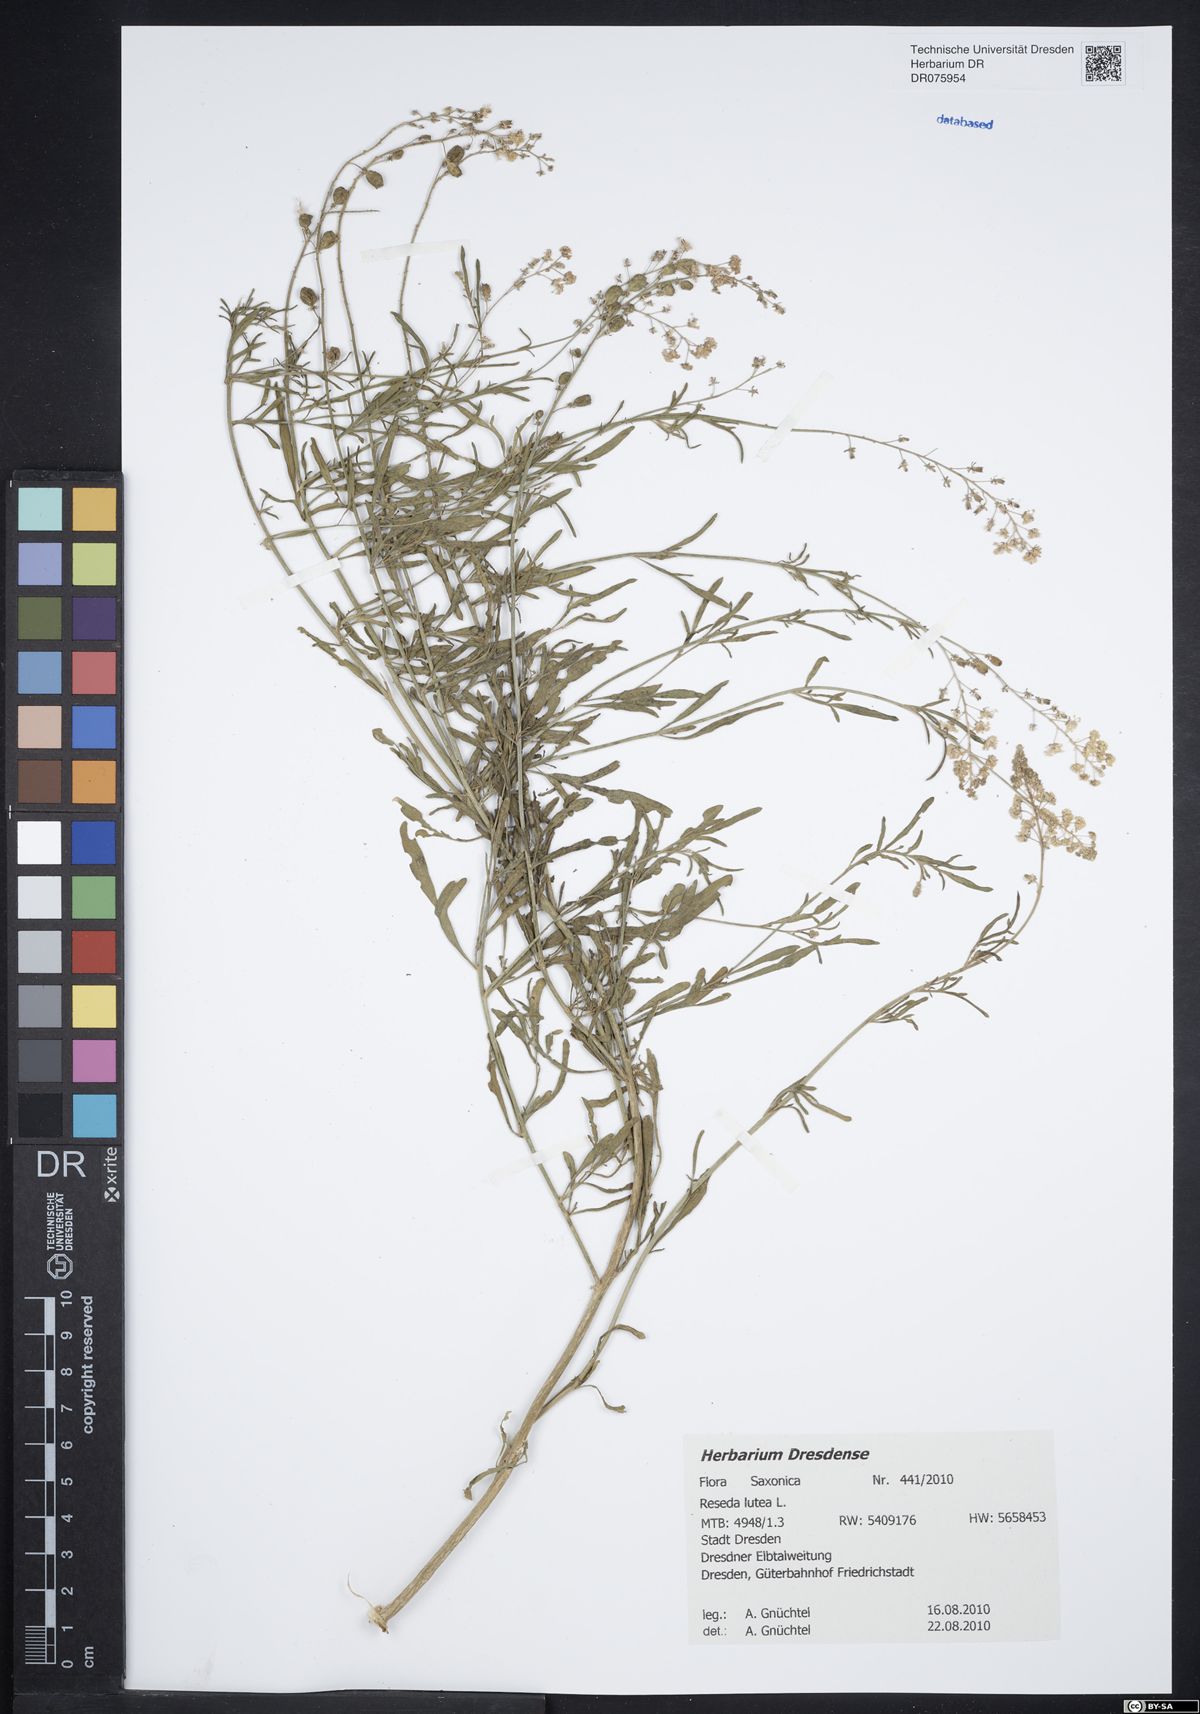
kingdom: Plantae
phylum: Tracheophyta
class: Magnoliopsida
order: Brassicales
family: Resedaceae
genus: Reseda
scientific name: Reseda lutea
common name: Wild mignonette
